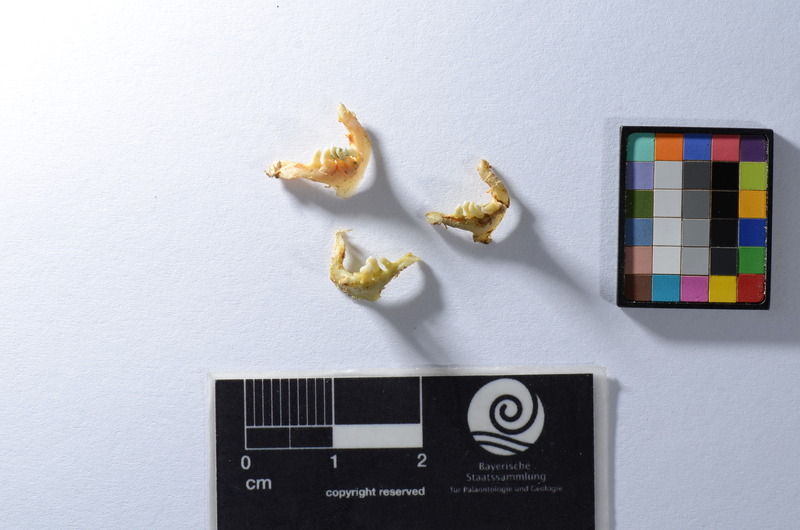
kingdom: Animalia
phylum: Chordata
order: Cypriniformes
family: Cyprinidae
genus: Rutilus
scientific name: Rutilus rutilus
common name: Roach
